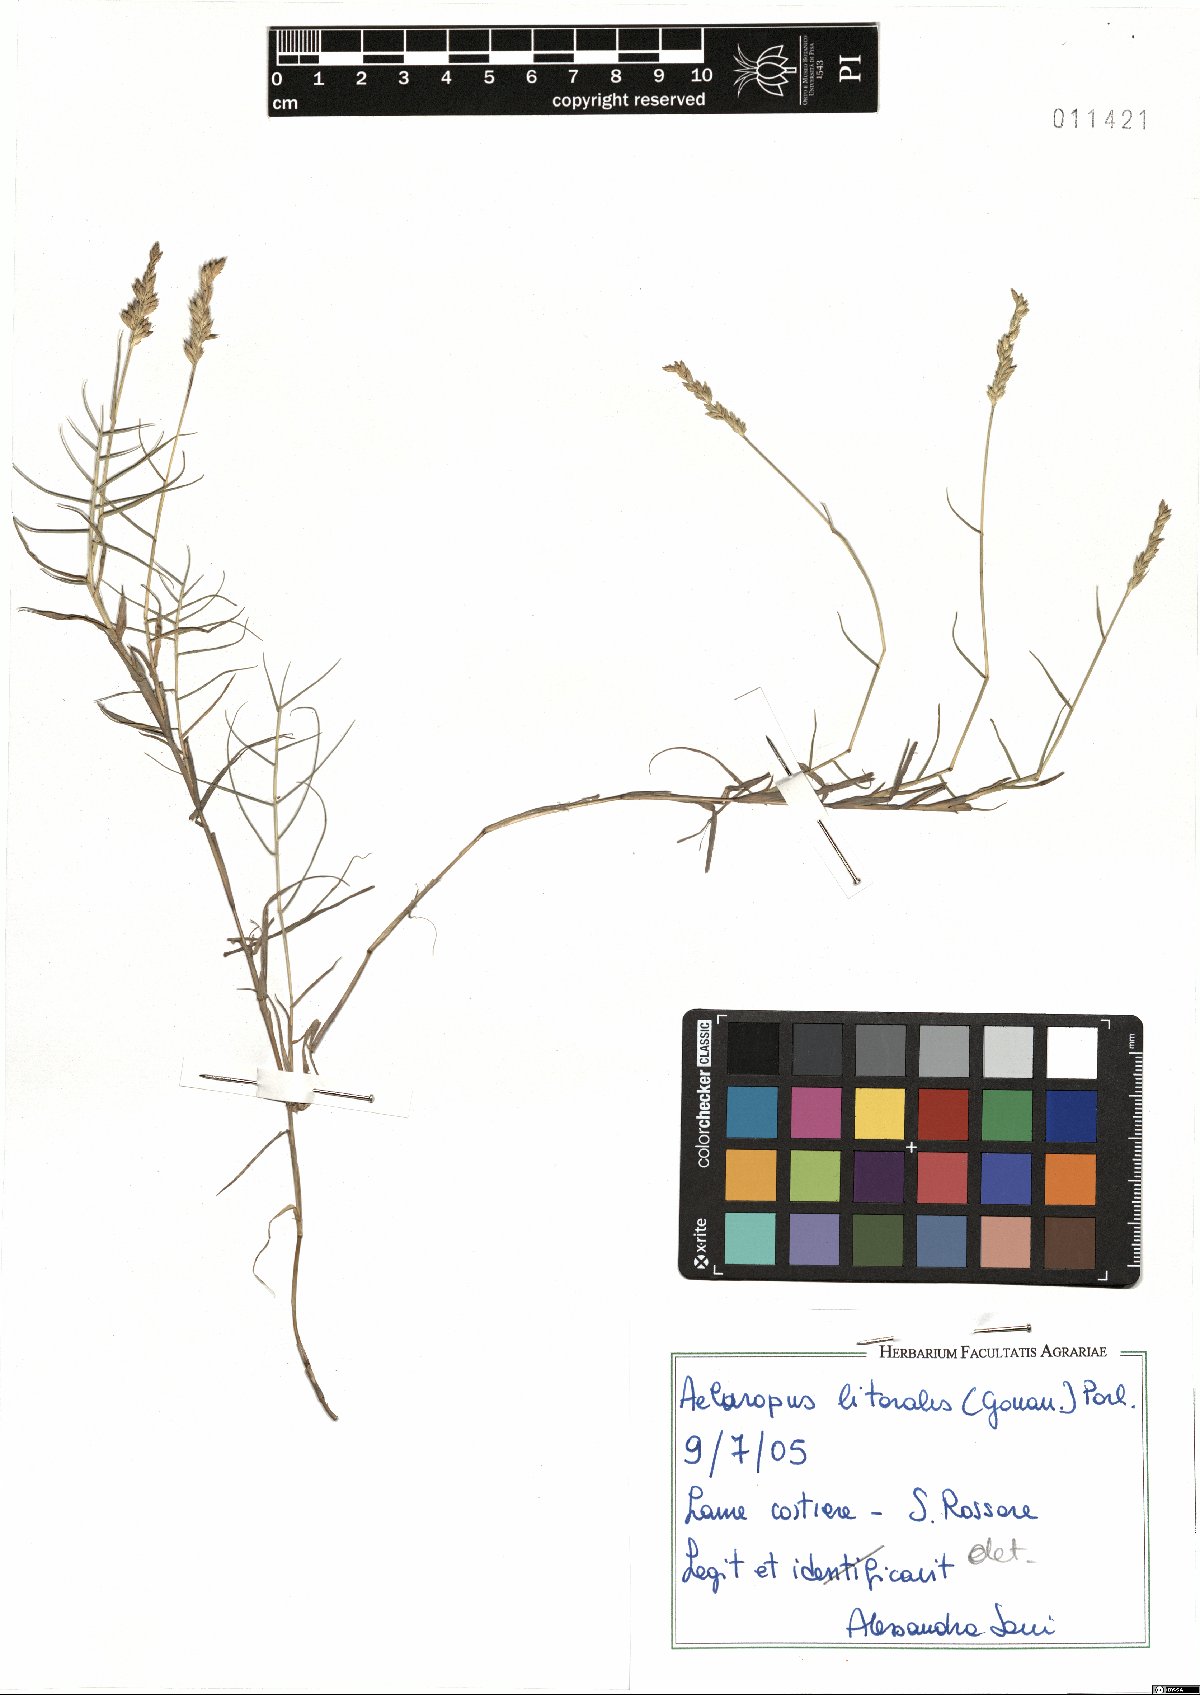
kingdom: Plantae
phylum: Tracheophyta
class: Liliopsida
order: Poales
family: Poaceae
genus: Aeluropus
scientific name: Aeluropus littoralis
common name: Indian walnut
